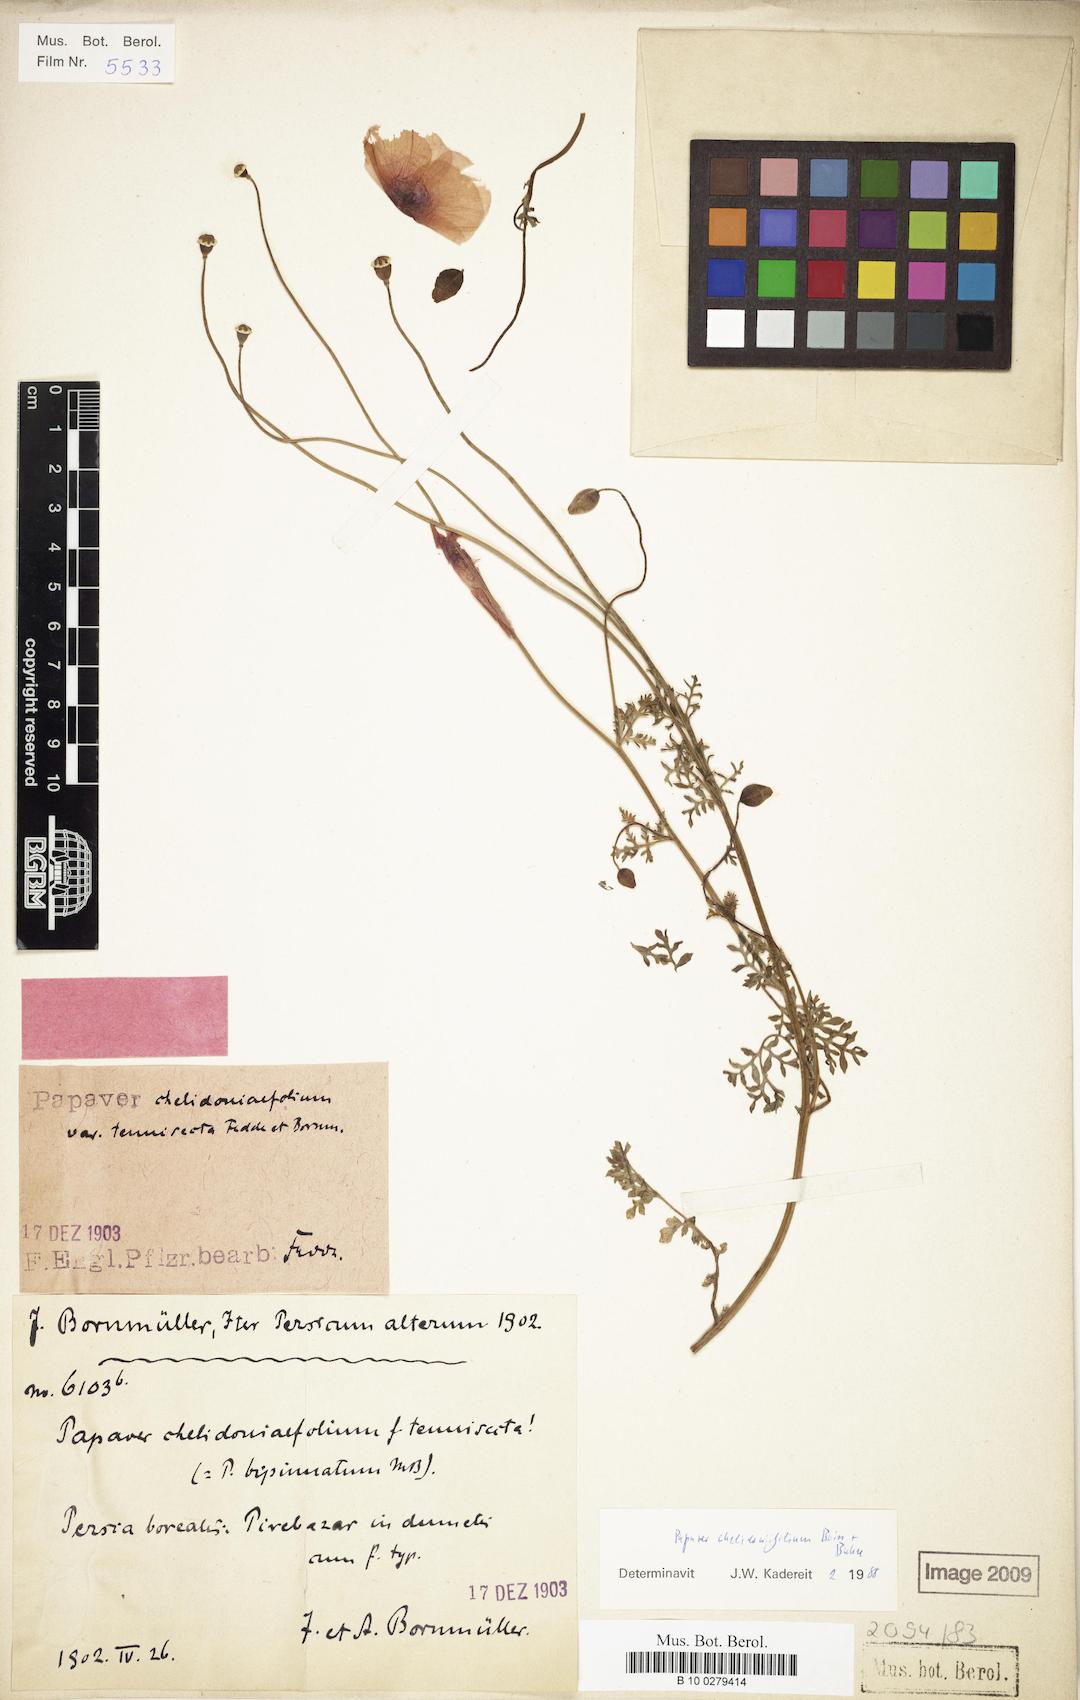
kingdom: Plantae
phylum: Tracheophyta
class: Magnoliopsida
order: Ranunculales
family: Papaveraceae
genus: Papaver
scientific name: Papaver chelidoniifolium
